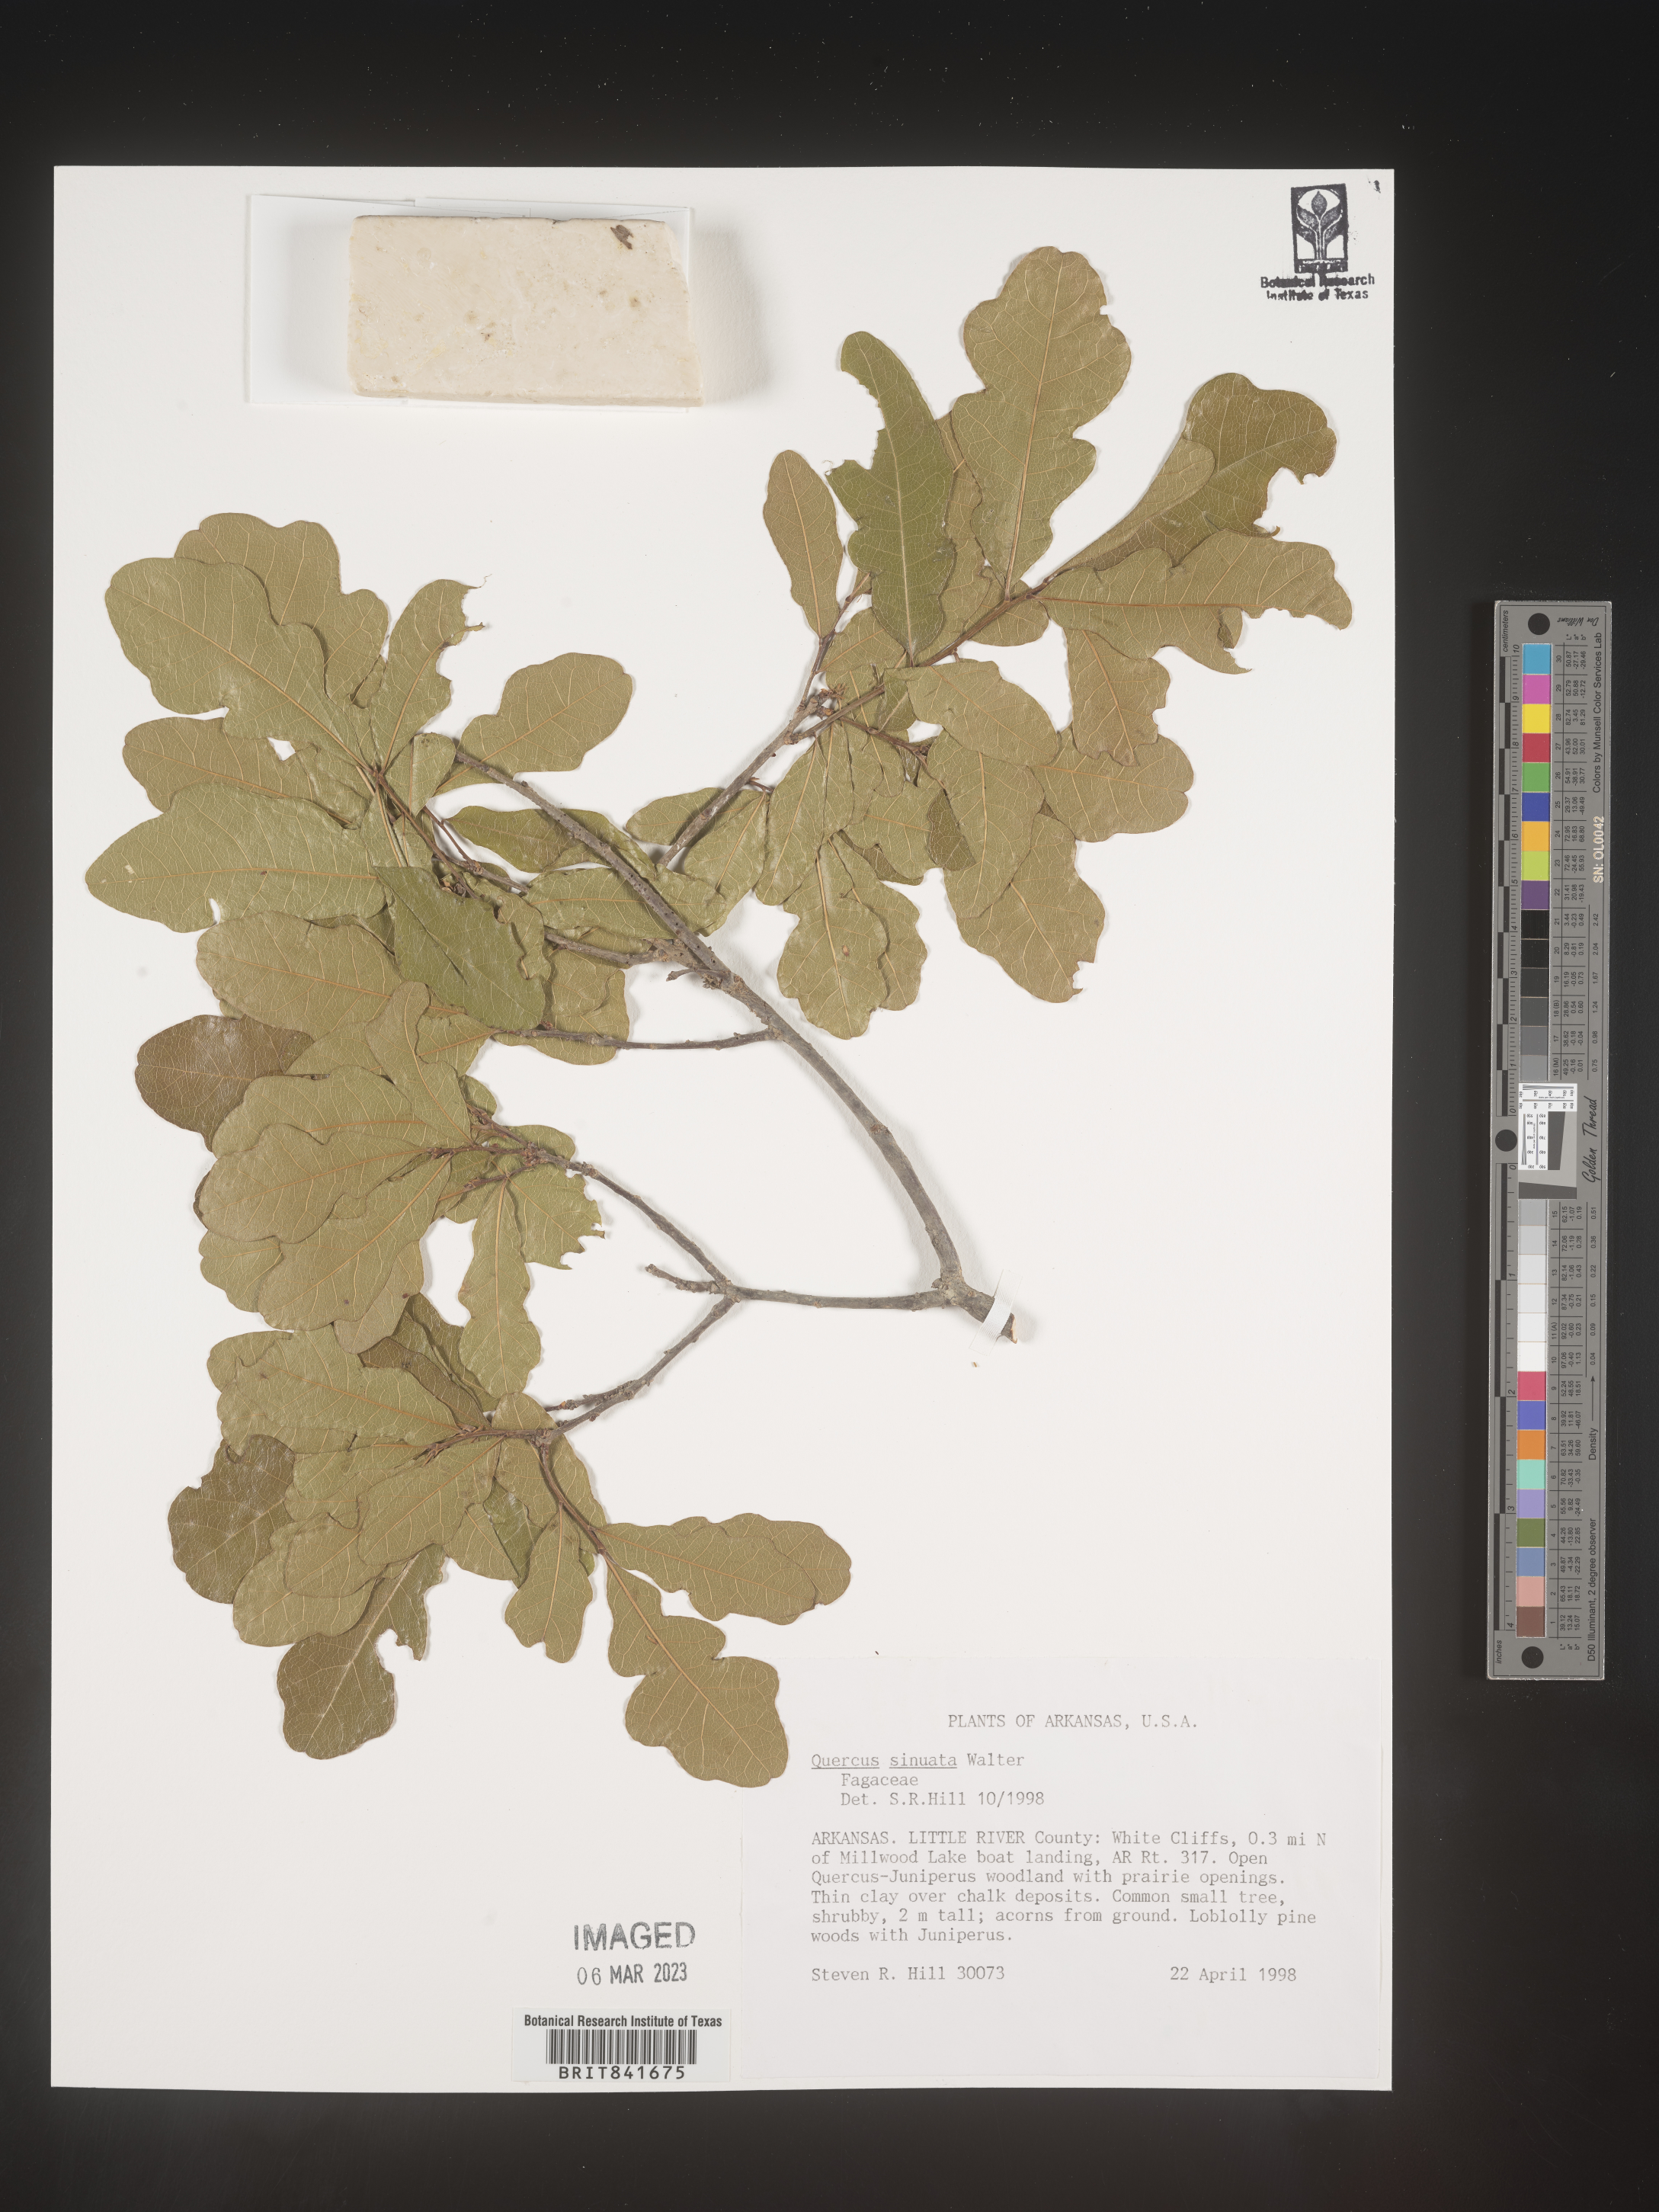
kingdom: Plantae
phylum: Tracheophyta
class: Magnoliopsida
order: Fagales
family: Fagaceae
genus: Quercus
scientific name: Quercus
